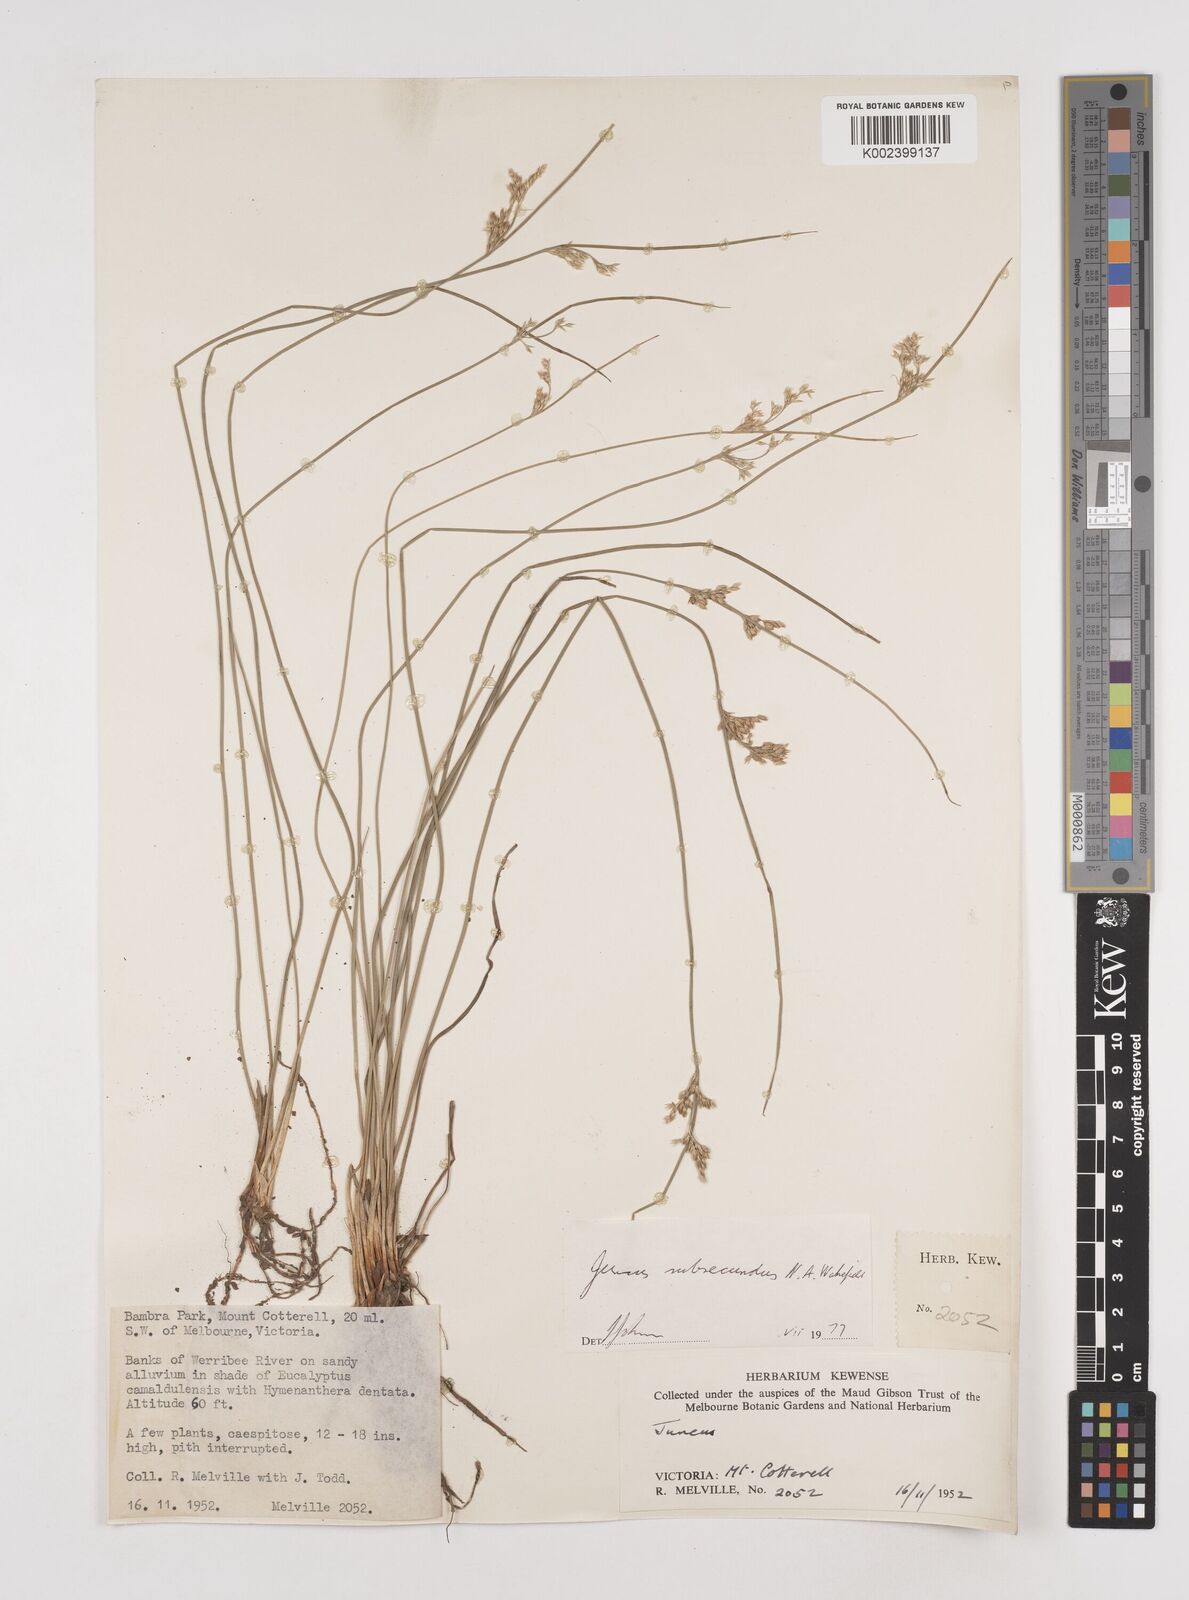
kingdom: Plantae
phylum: Tracheophyta
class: Liliopsida
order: Poales
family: Juncaceae
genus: Juncus
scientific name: Juncus subsecundus
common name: Fingered rush
